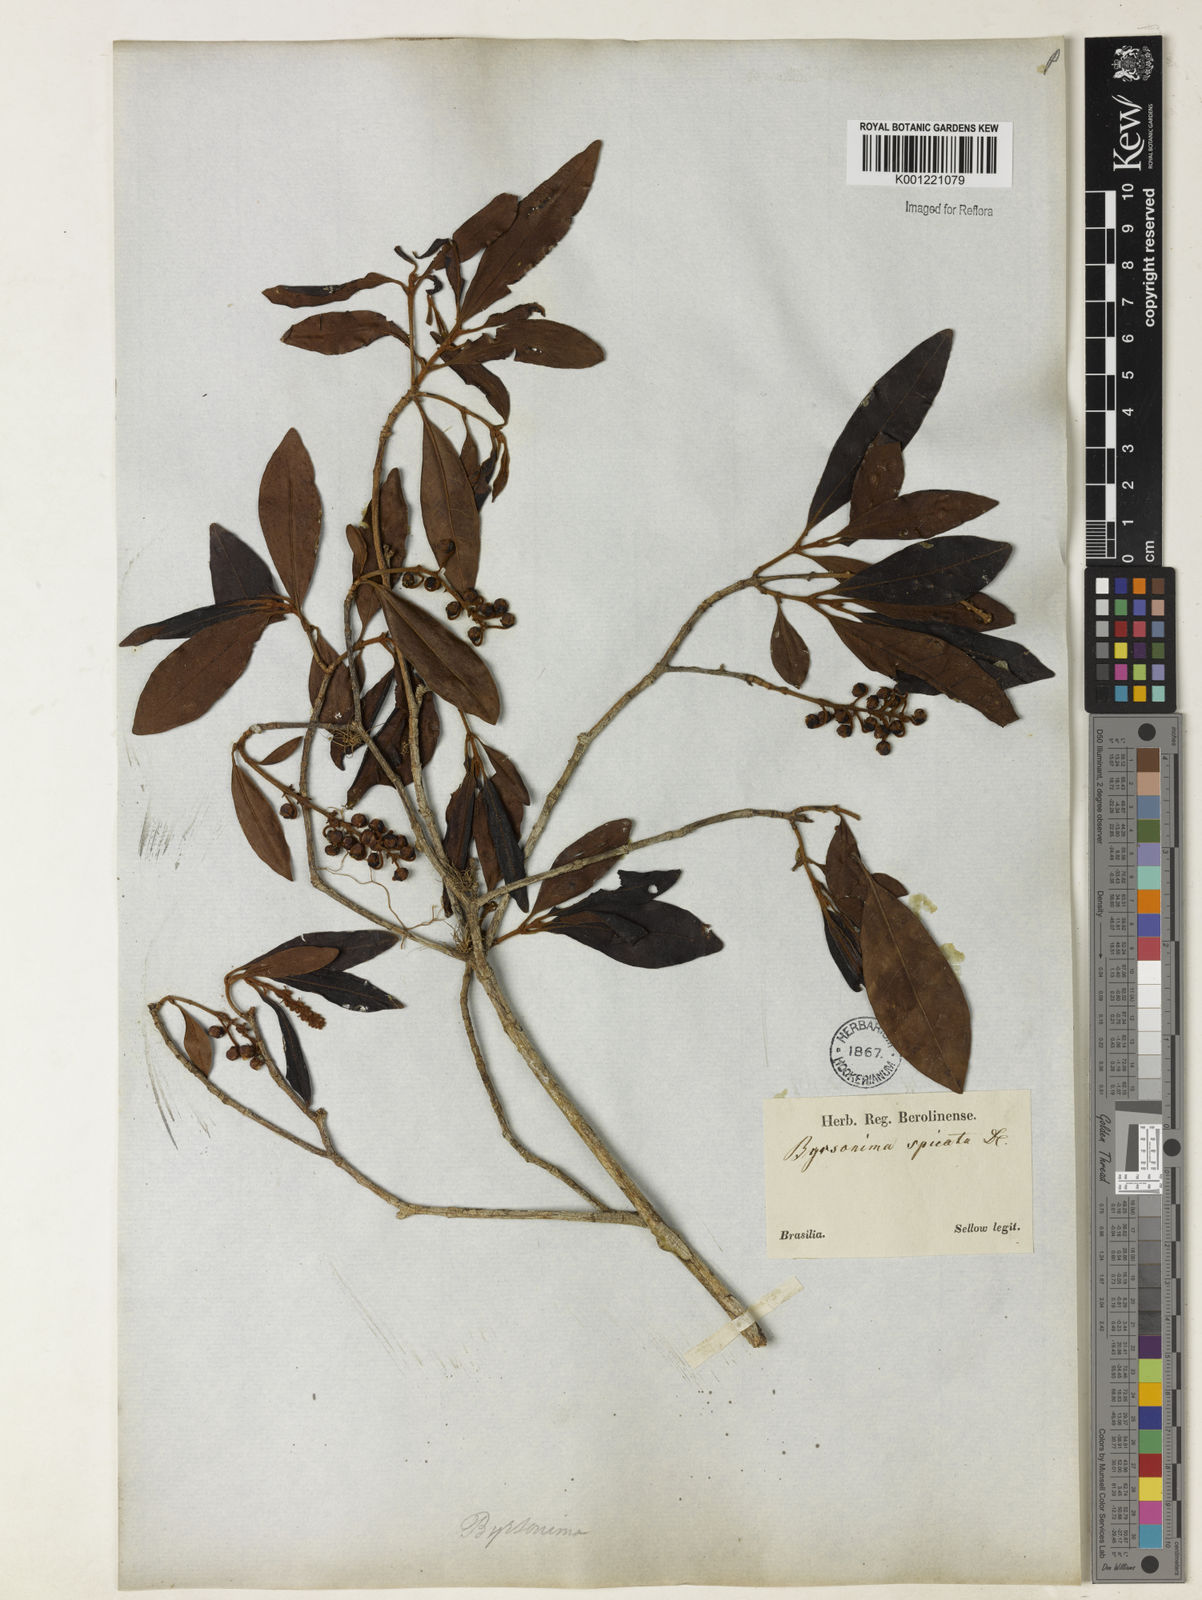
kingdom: Plantae
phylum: Tracheophyta
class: Magnoliopsida
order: Malpighiales
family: Malpighiaceae
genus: Byrsonima
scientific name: Byrsonima intermedia
